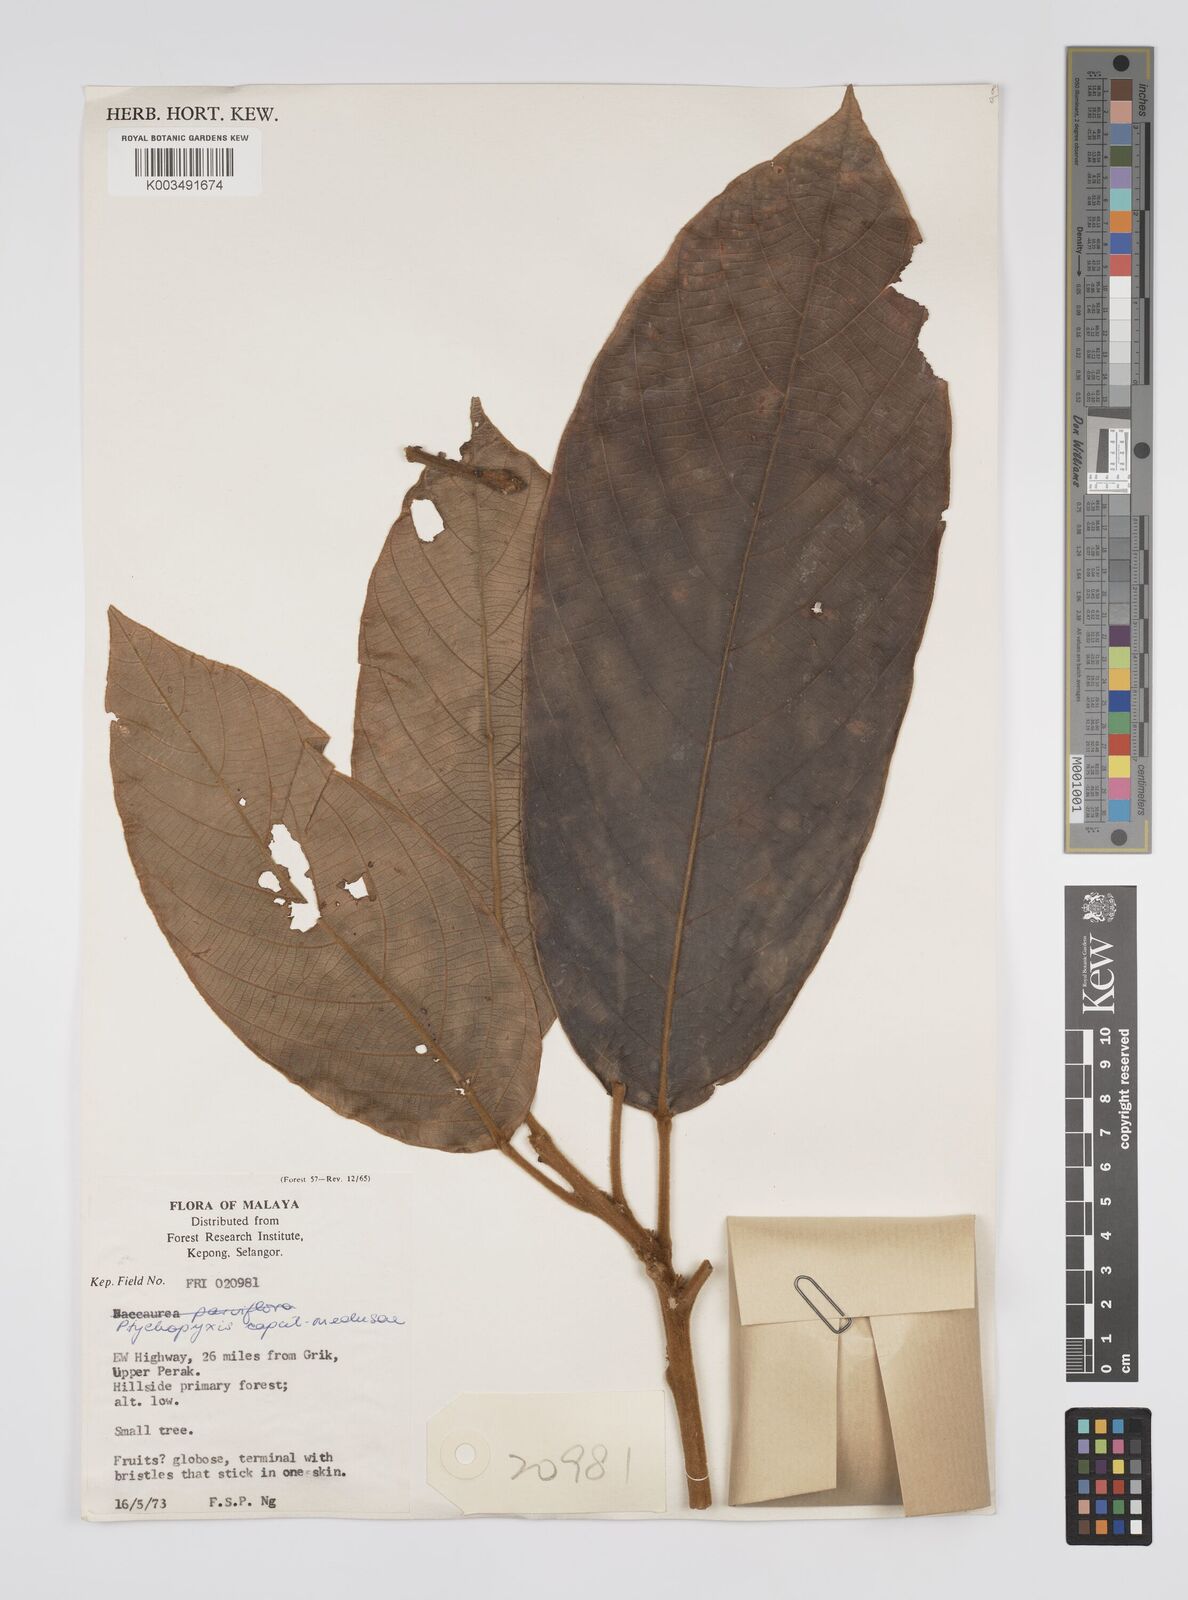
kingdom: Plantae
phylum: Tracheophyta
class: Magnoliopsida
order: Malpighiales
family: Euphorbiaceae
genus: Ptychopyxis
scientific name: Ptychopyxis caput-medusae
